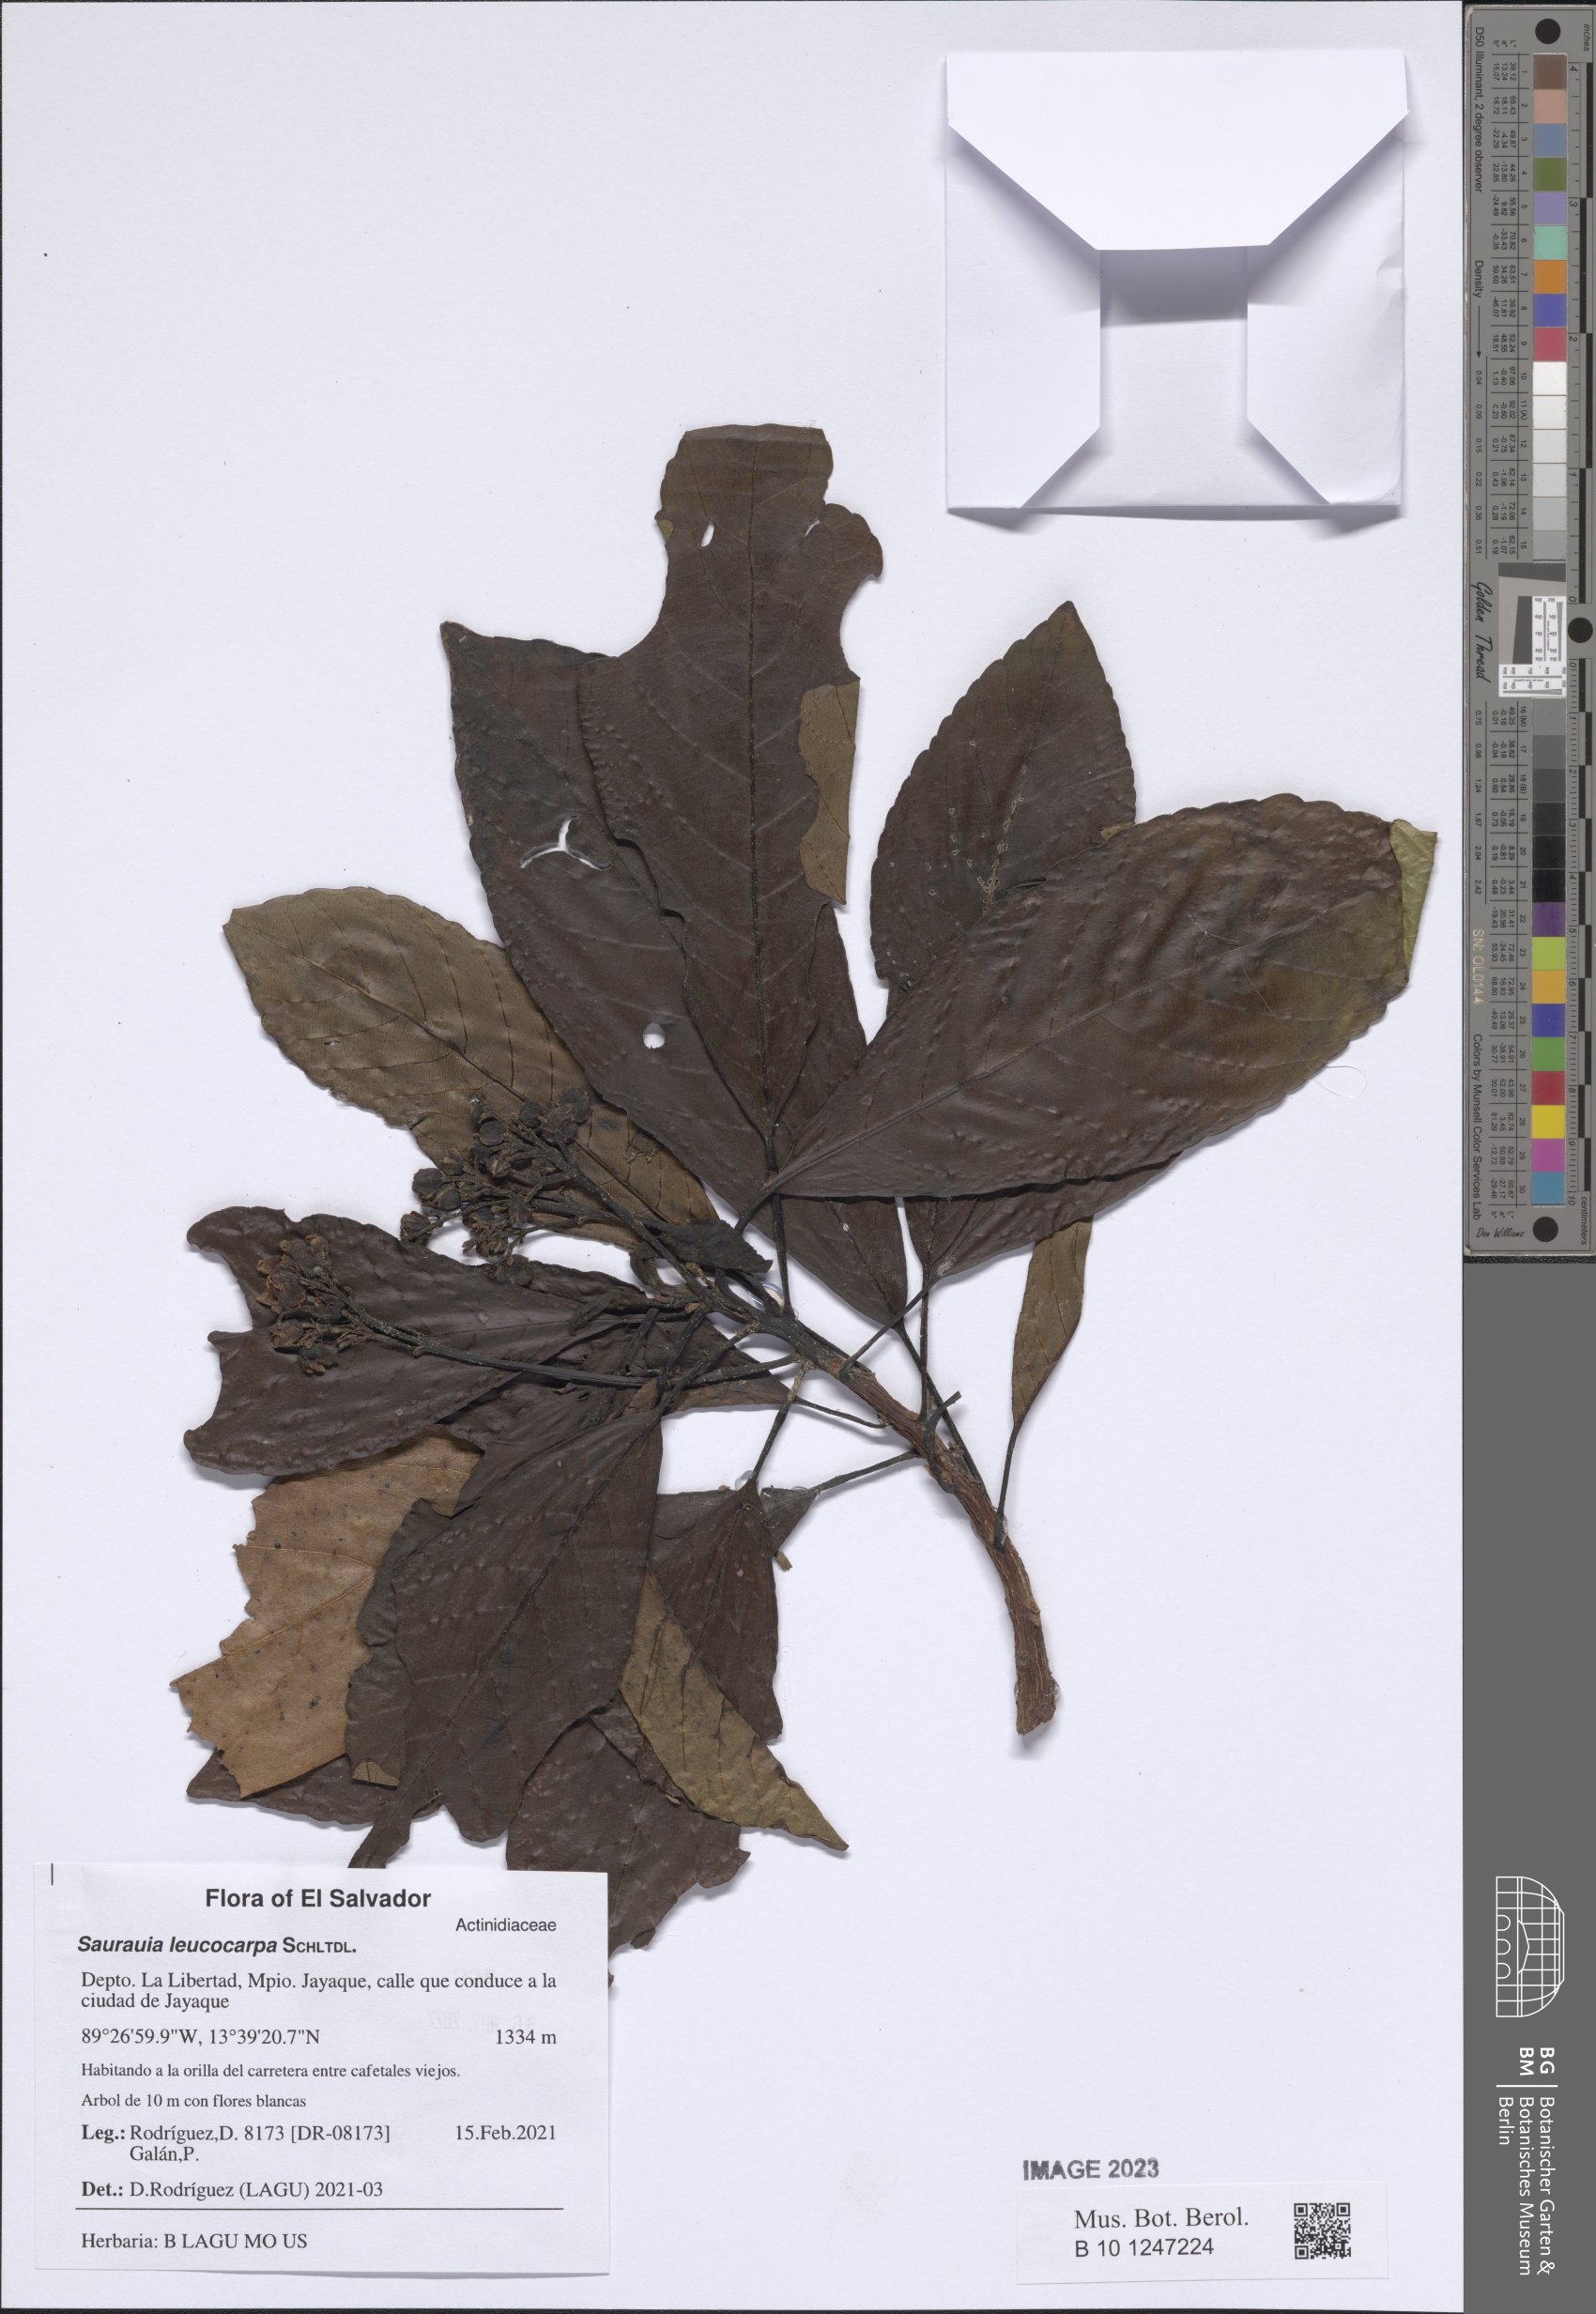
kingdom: Plantae
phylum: Tracheophyta
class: Magnoliopsida
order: Ericales
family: Actinidiaceae
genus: Saurauia
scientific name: Saurauia leucocarpa
